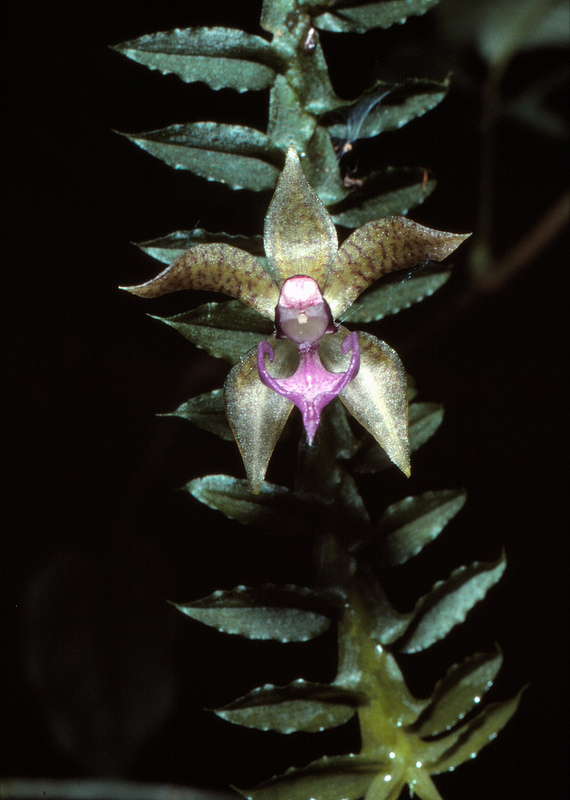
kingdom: Plantae
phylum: Tracheophyta
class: Liliopsida
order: Asparagales
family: Orchidaceae
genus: Dichaea
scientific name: Dichaea
